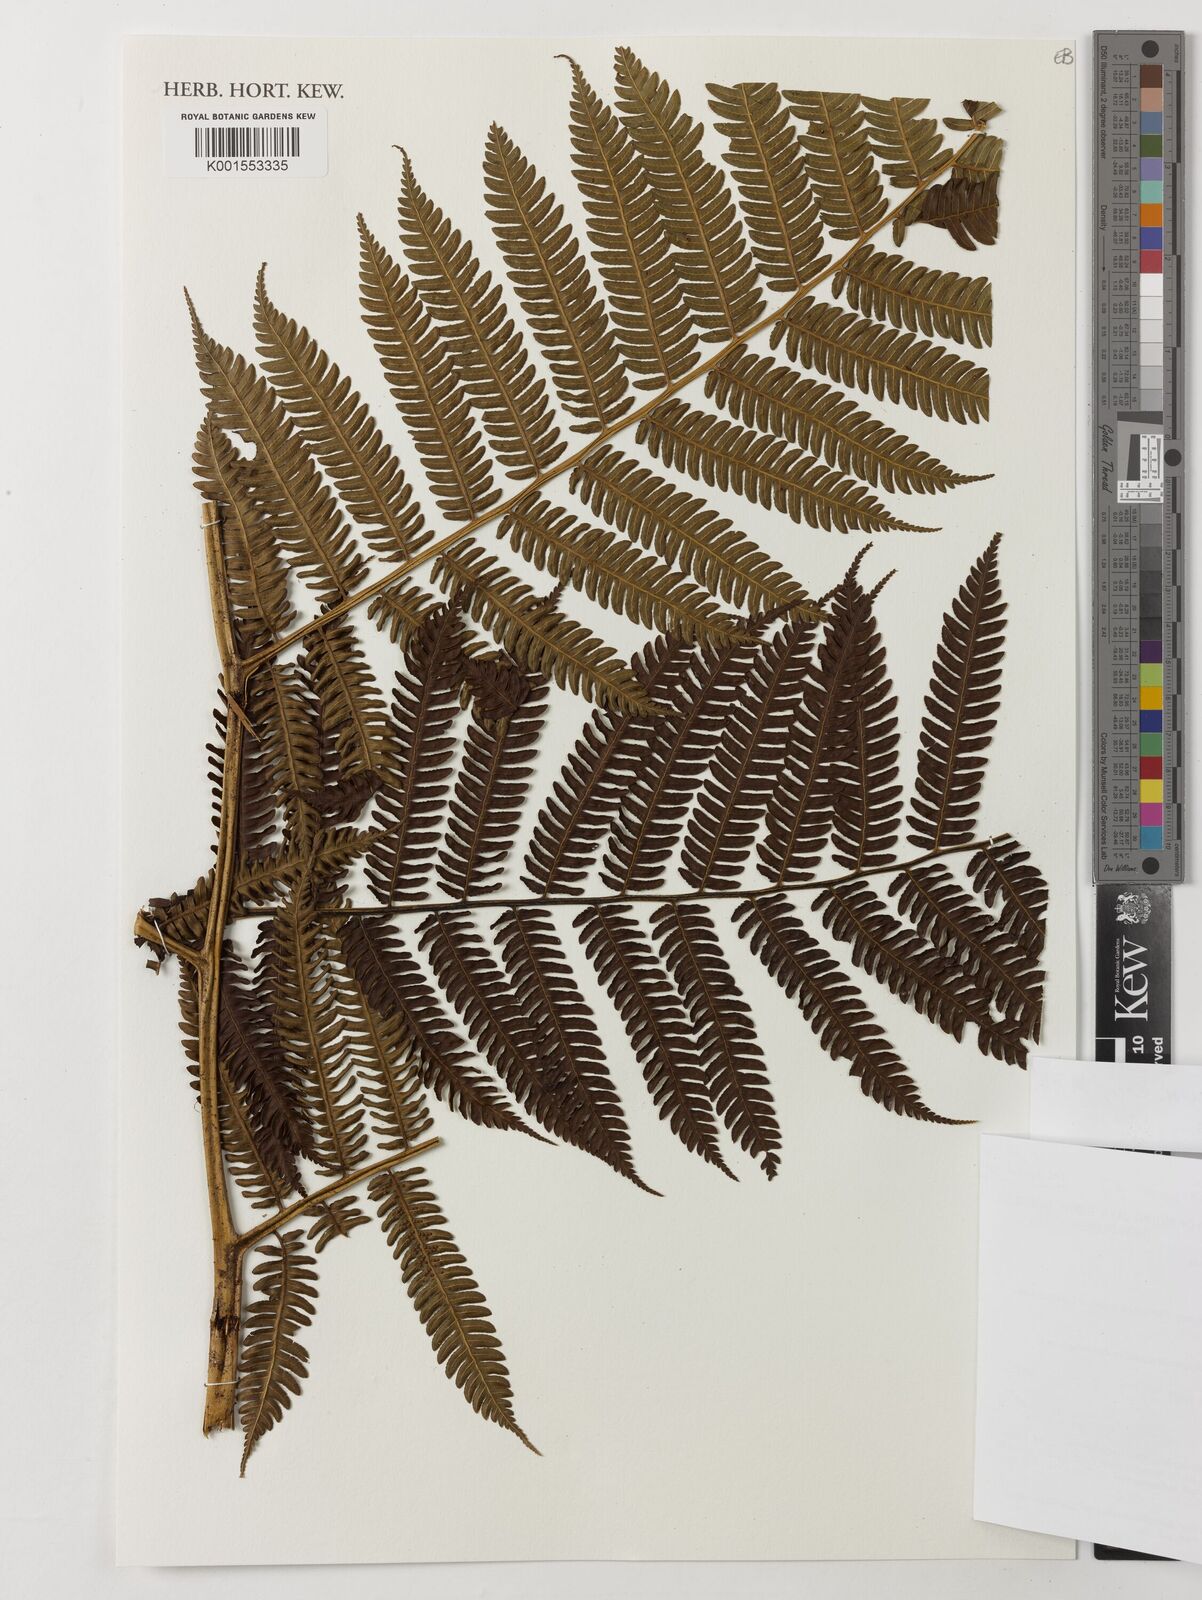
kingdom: Plantae
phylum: Tracheophyta
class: Polypodiopsida
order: Cyatheales
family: Cyatheaceae
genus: Sphaeropteris
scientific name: Sphaeropteris
